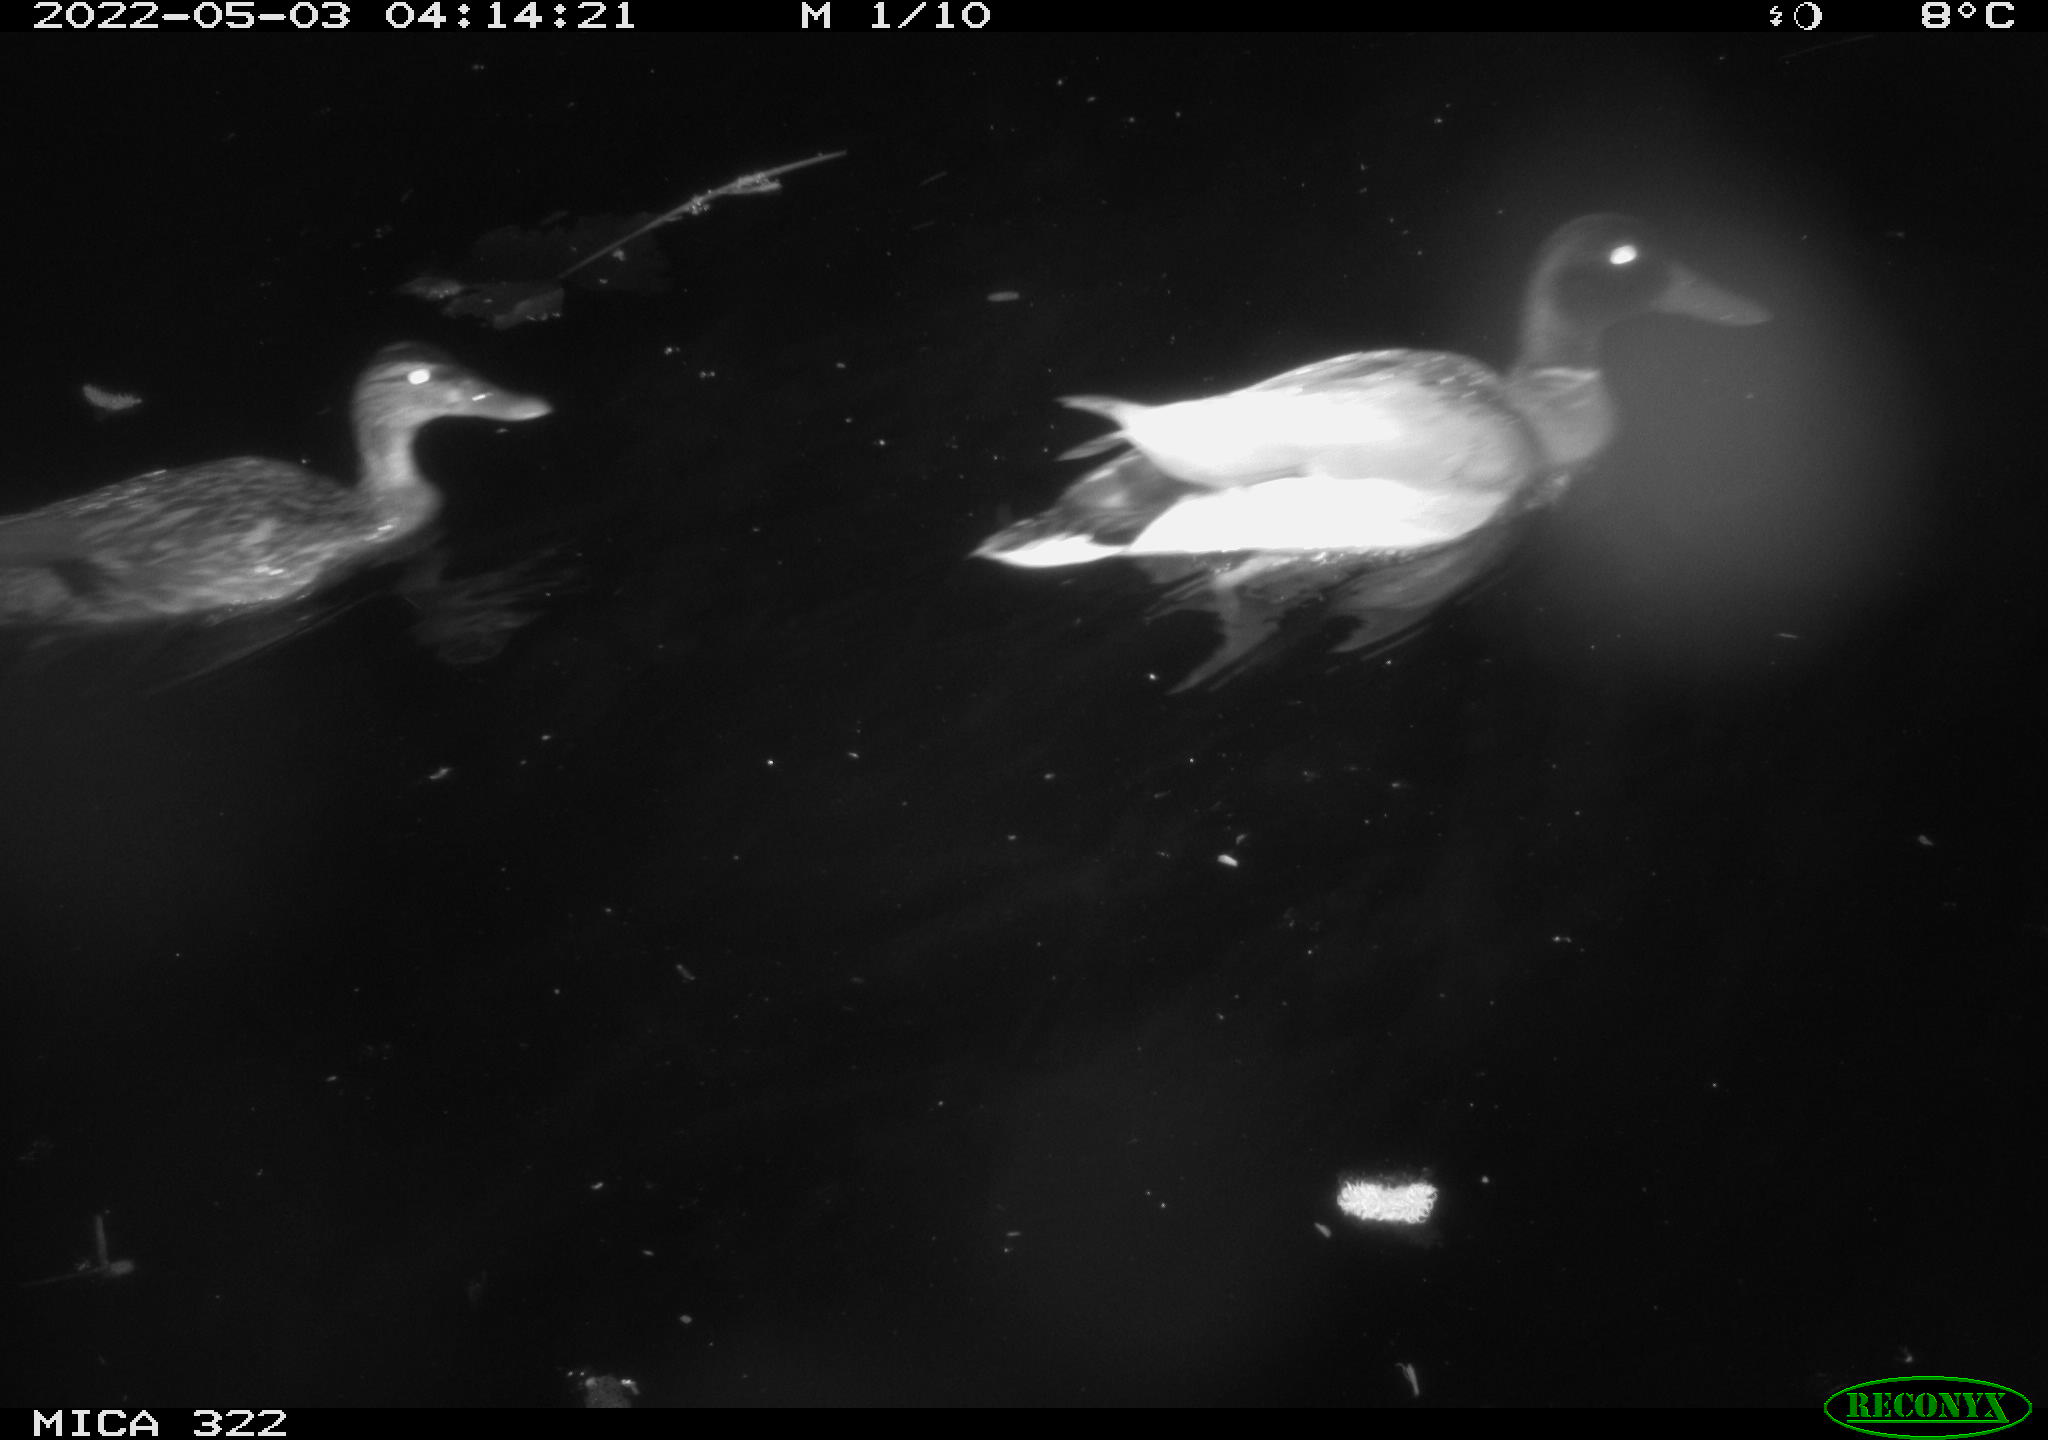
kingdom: Animalia
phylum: Chordata
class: Aves
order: Anseriformes
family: Anatidae
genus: Anas
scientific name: Anas platyrhynchos
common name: Mallard
